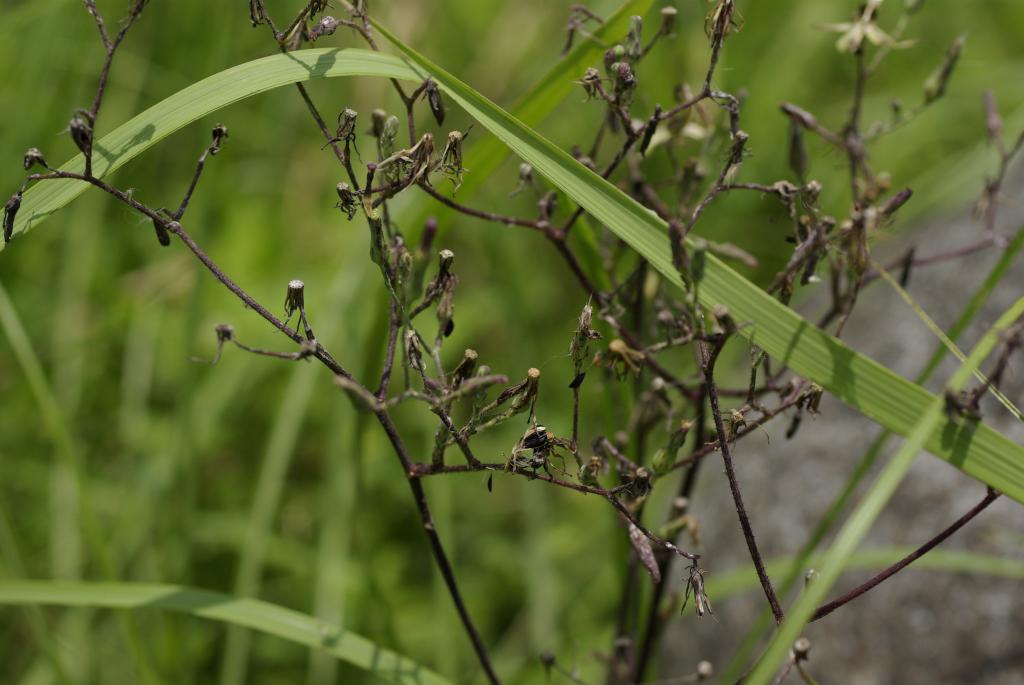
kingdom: Plantae
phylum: Tracheophyta
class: Magnoliopsida
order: Asterales
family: Asteraceae
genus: Lactuca
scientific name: Lactuca formosana
